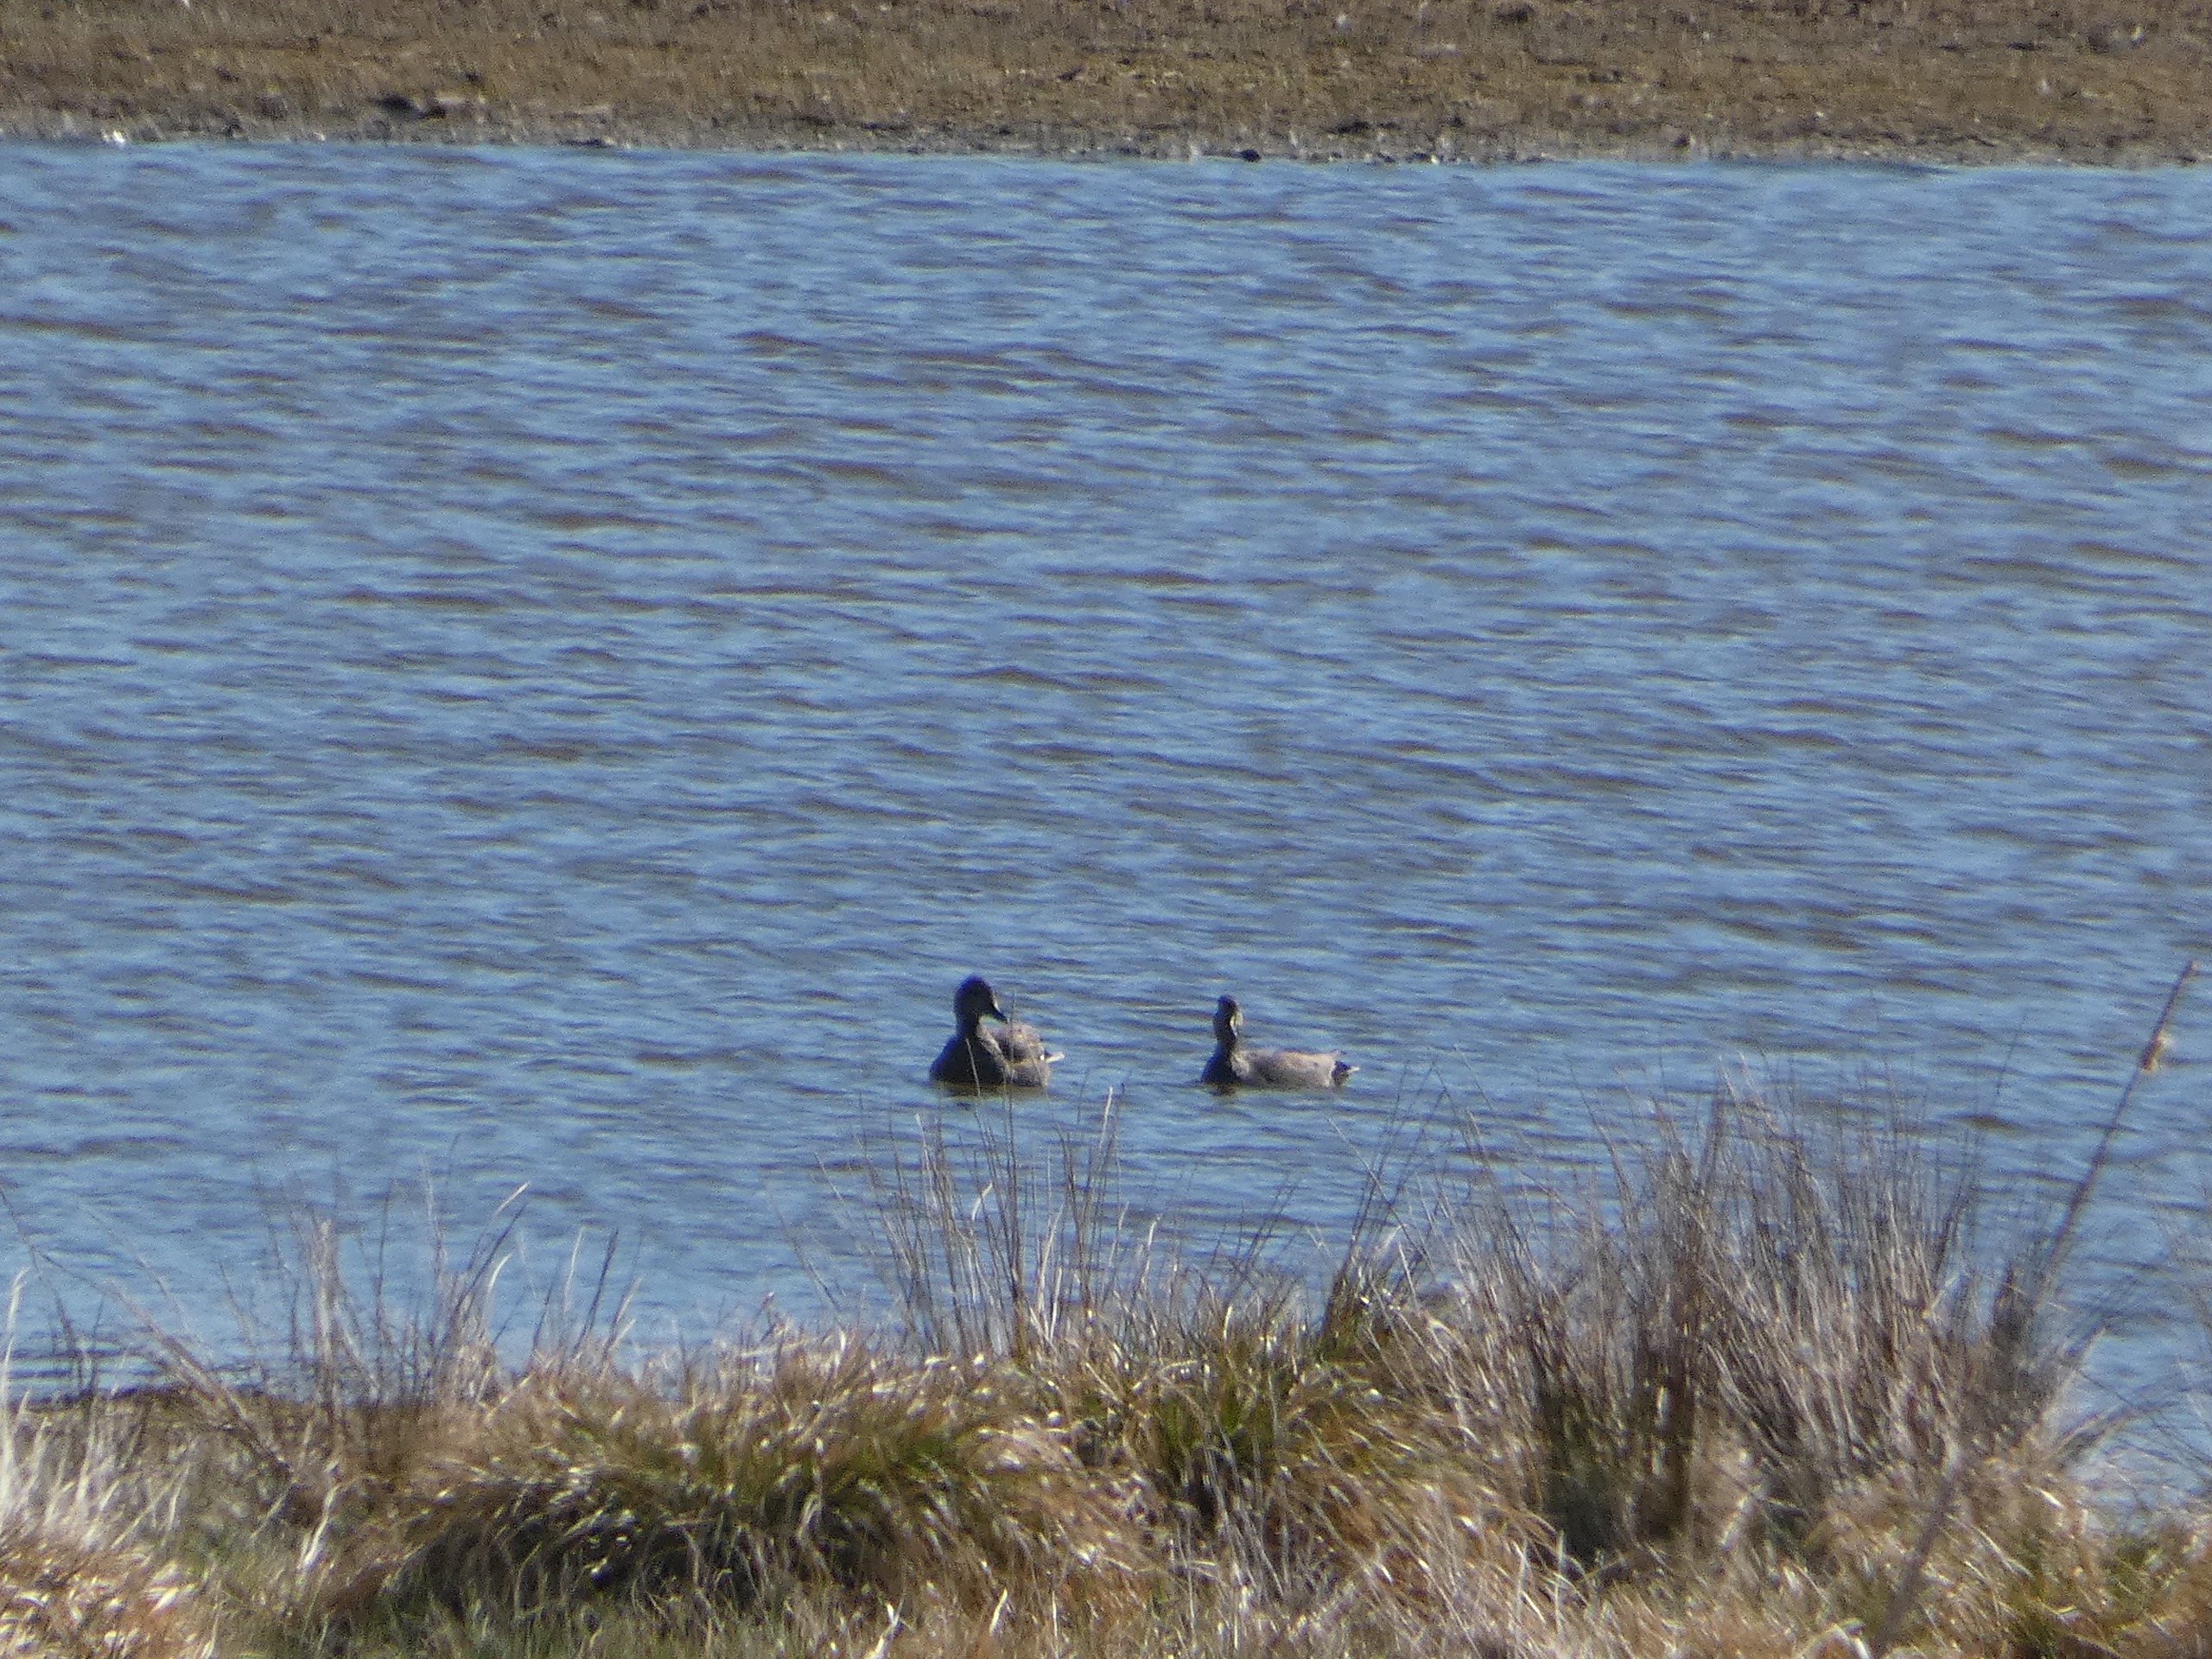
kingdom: Animalia
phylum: Chordata
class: Aves
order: Anseriformes
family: Anatidae
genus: Mareca
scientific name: Mareca strepera
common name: Knarand
